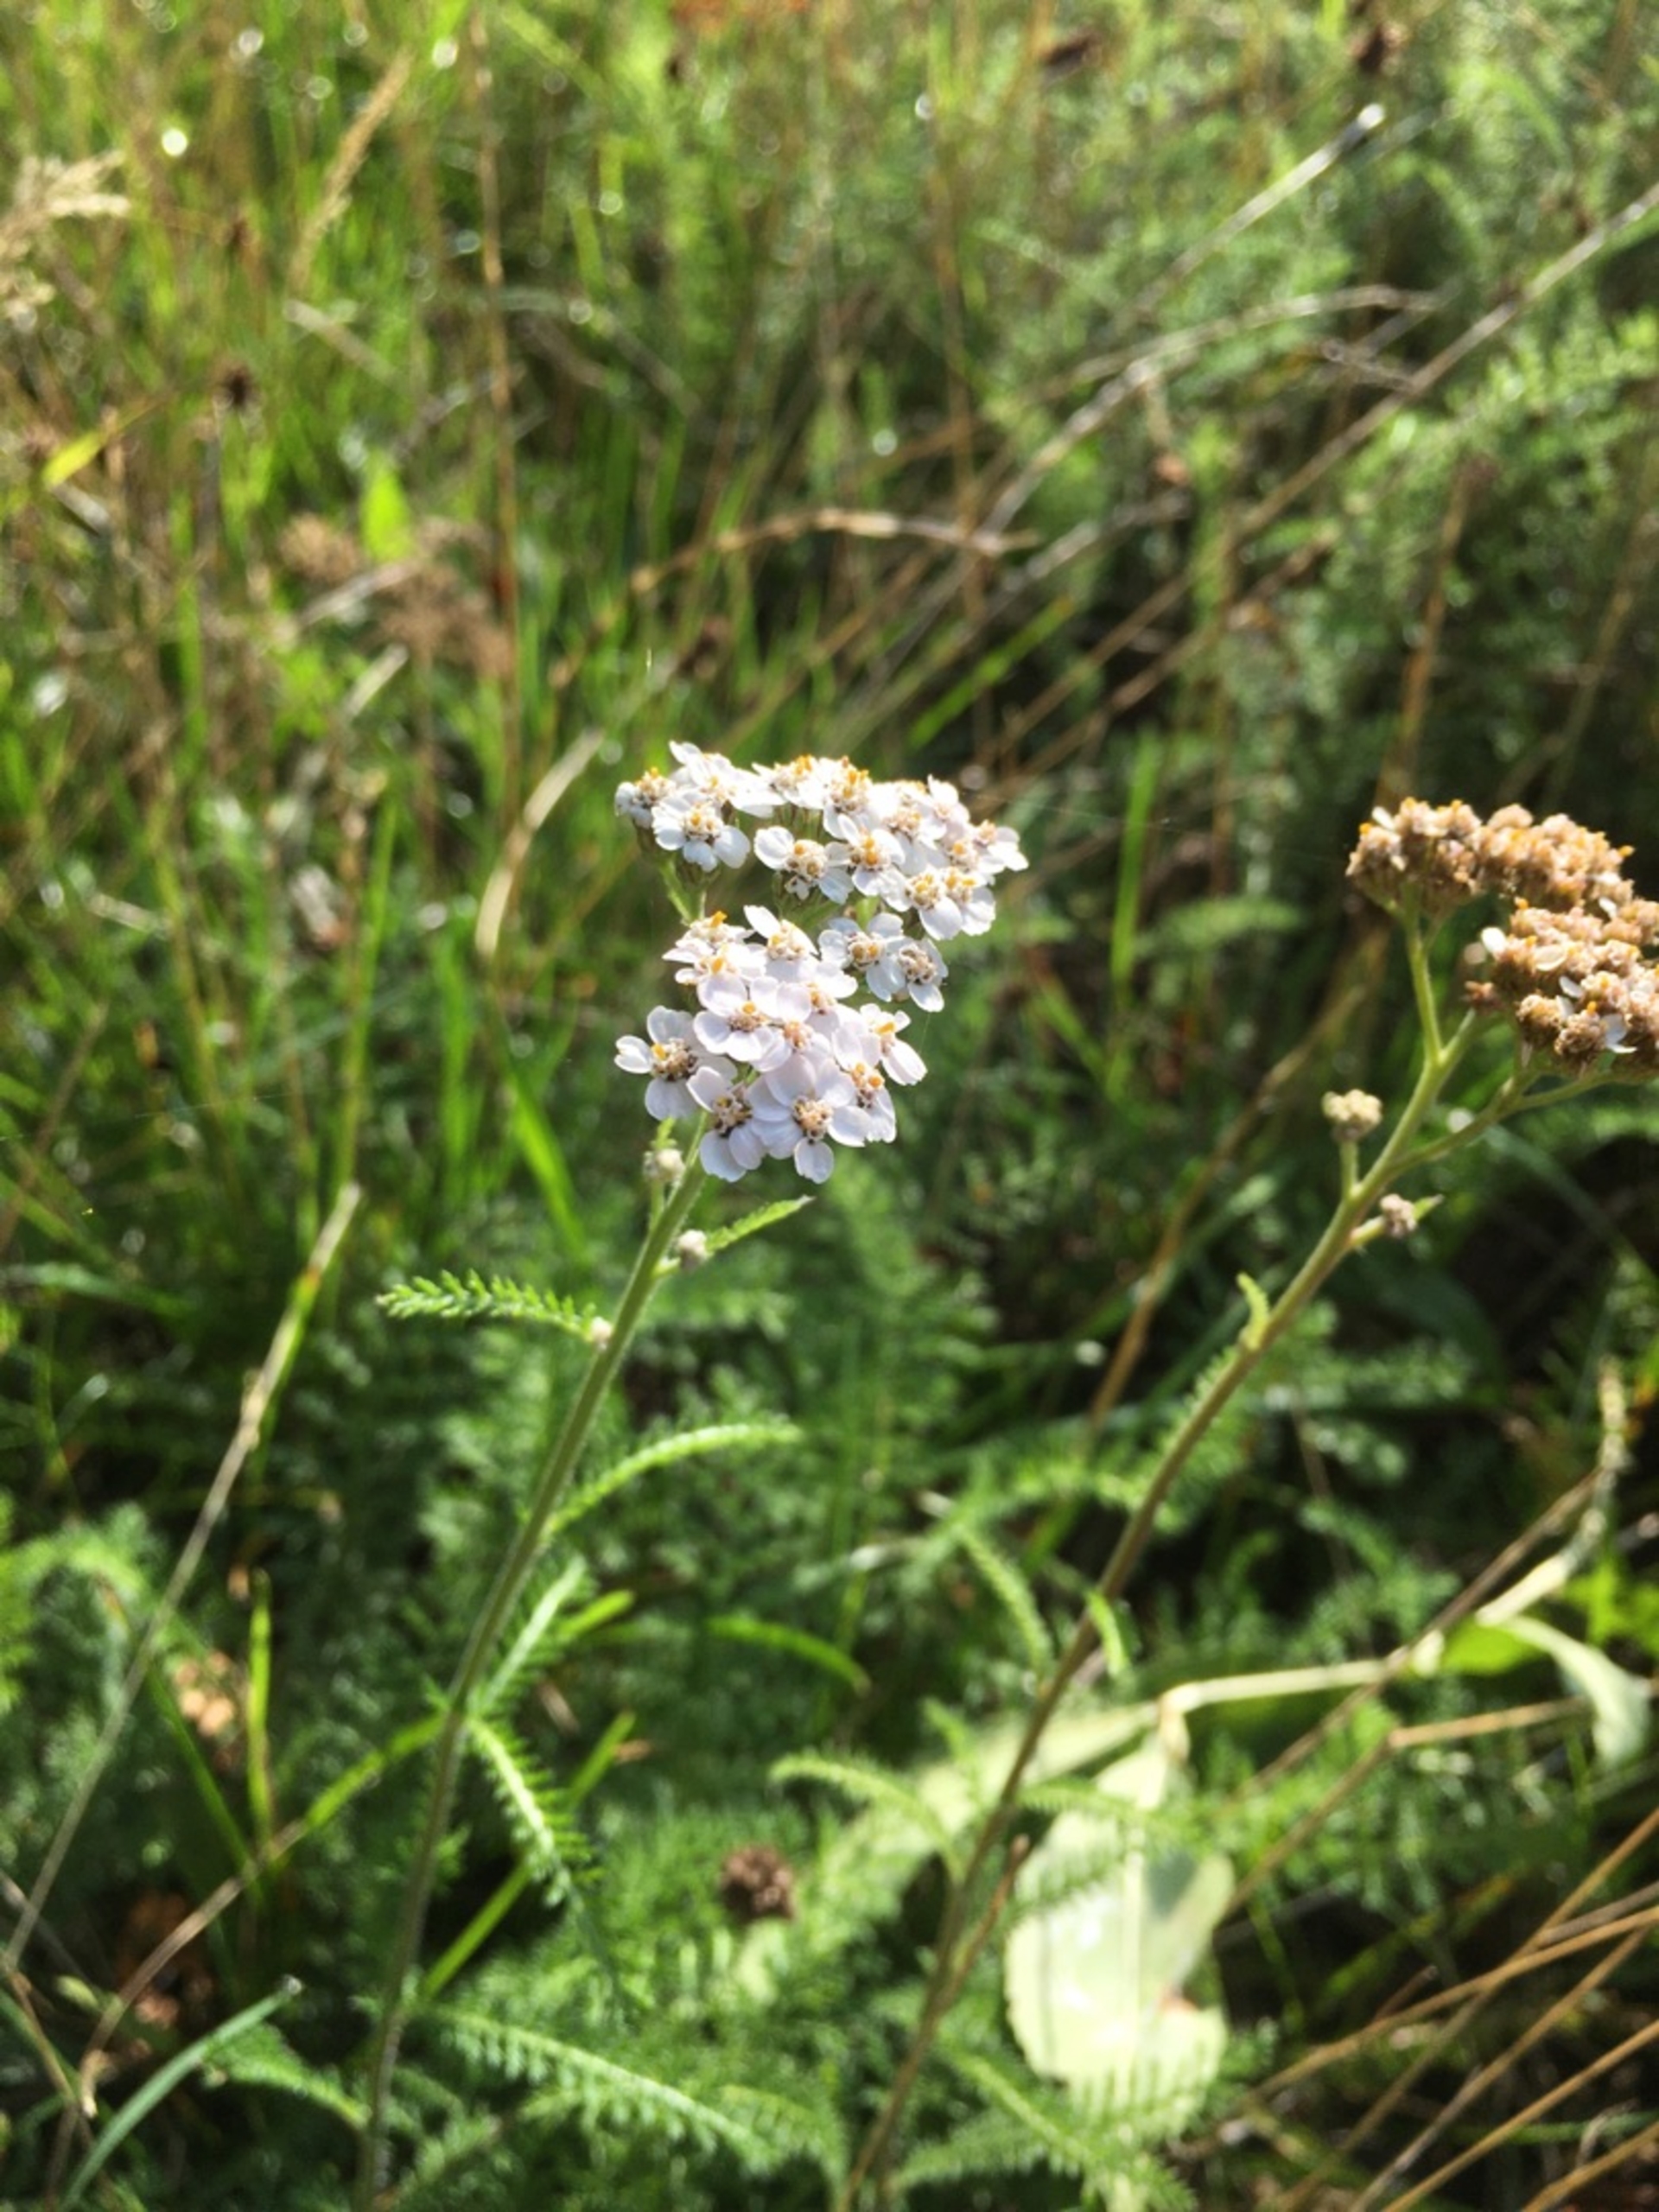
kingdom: Plantae
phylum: Tracheophyta
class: Magnoliopsida
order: Asterales
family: Asteraceae
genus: Achillea
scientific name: Achillea millefolium
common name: Almindelig røllike
